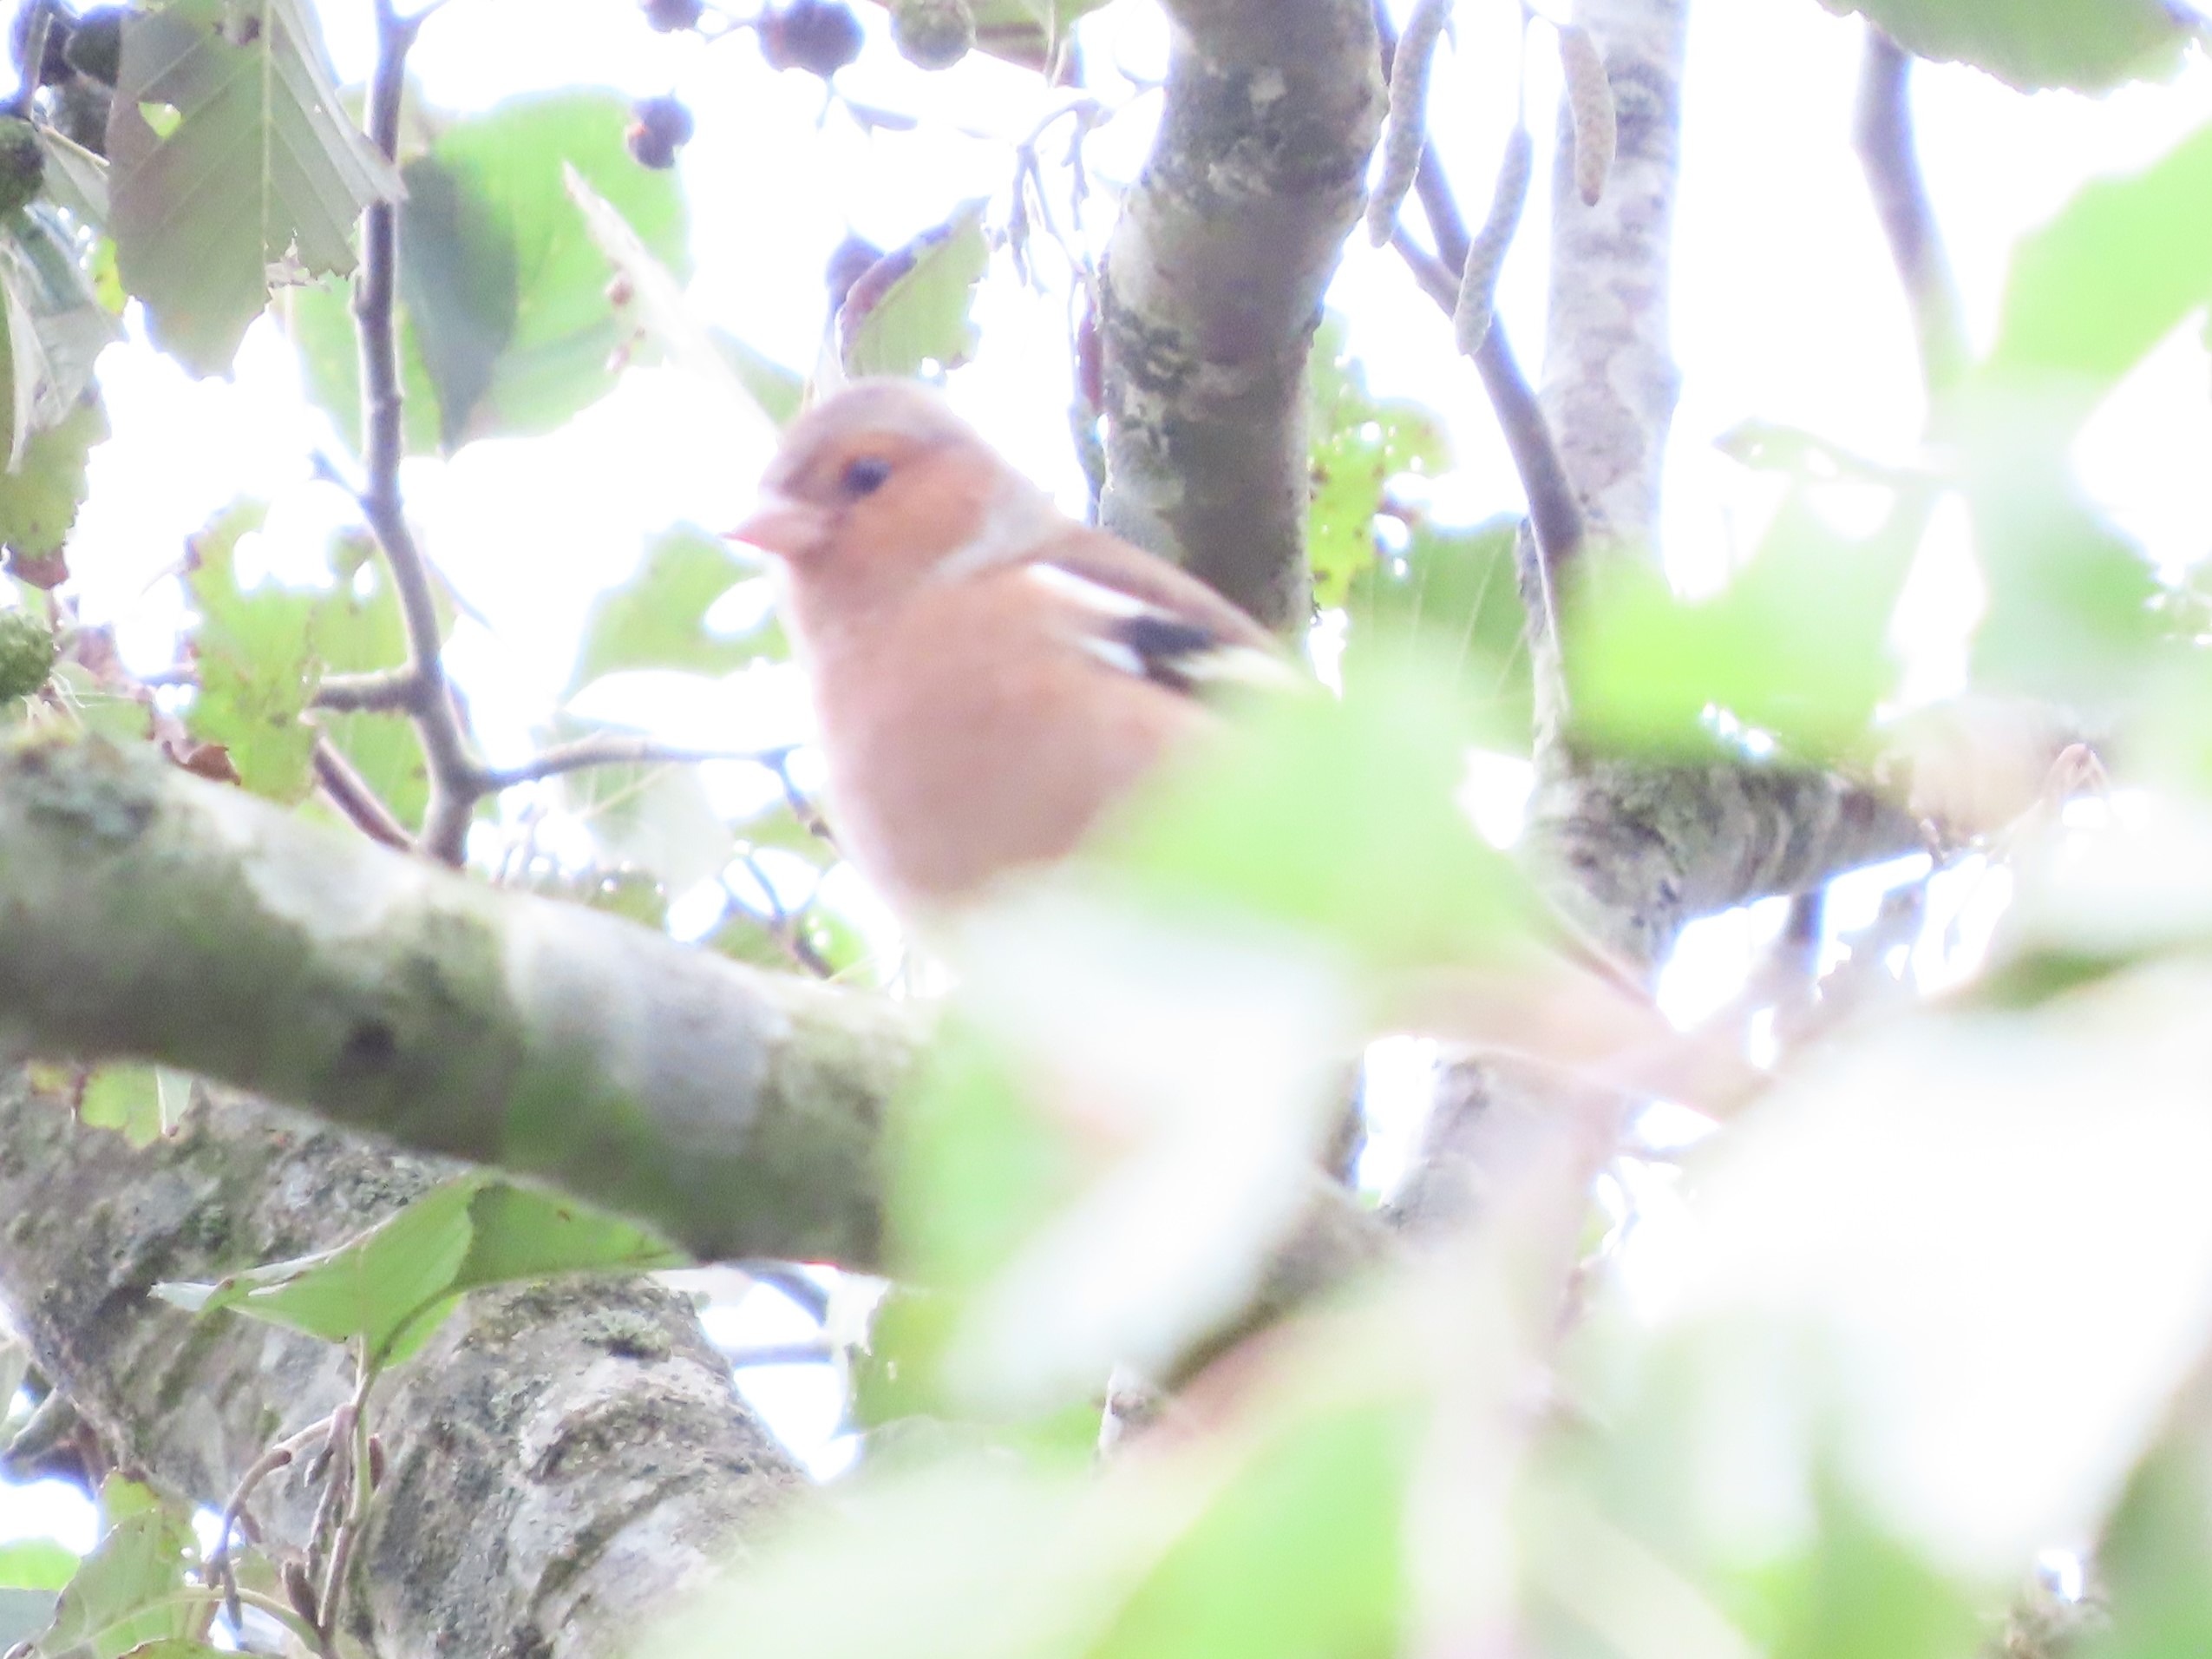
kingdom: Animalia
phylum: Chordata
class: Aves
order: Passeriformes
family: Fringillidae
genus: Fringilla
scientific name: Fringilla coelebs
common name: Bogfinke
